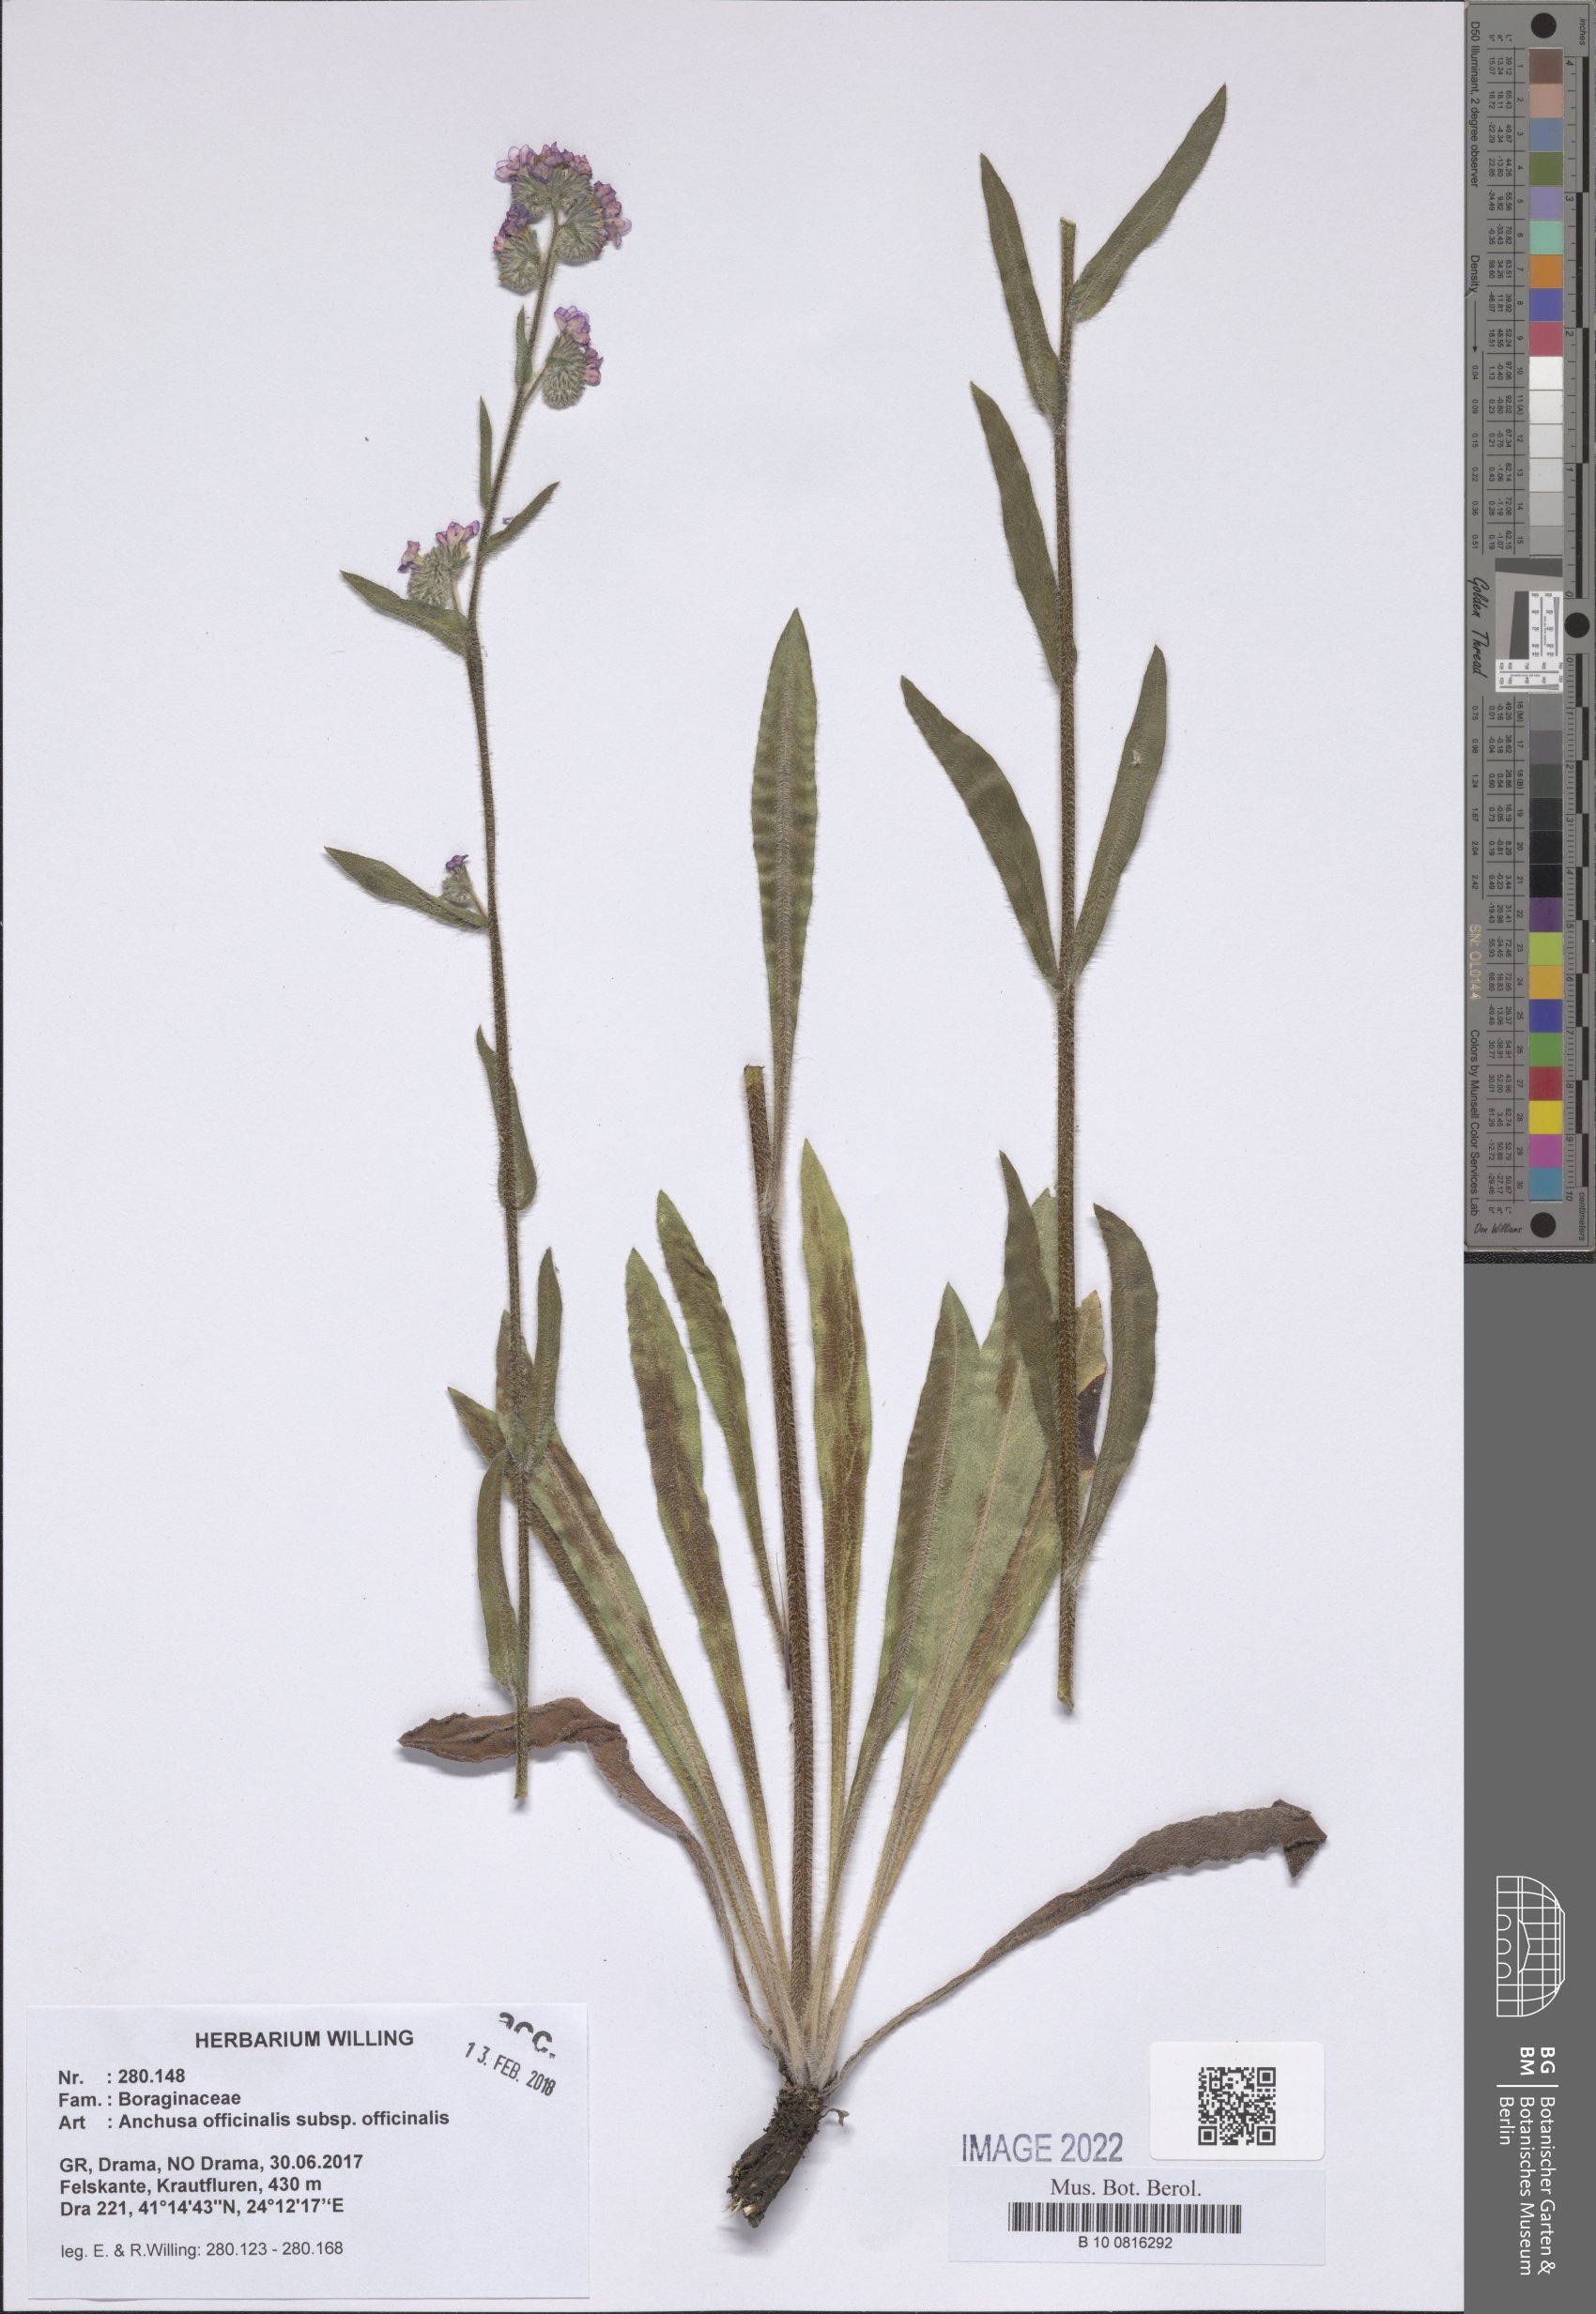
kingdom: Plantae
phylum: Tracheophyta
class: Magnoliopsida
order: Boraginales
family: Boraginaceae
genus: Anchusa
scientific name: Anchusa officinalis
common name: Alkanet
